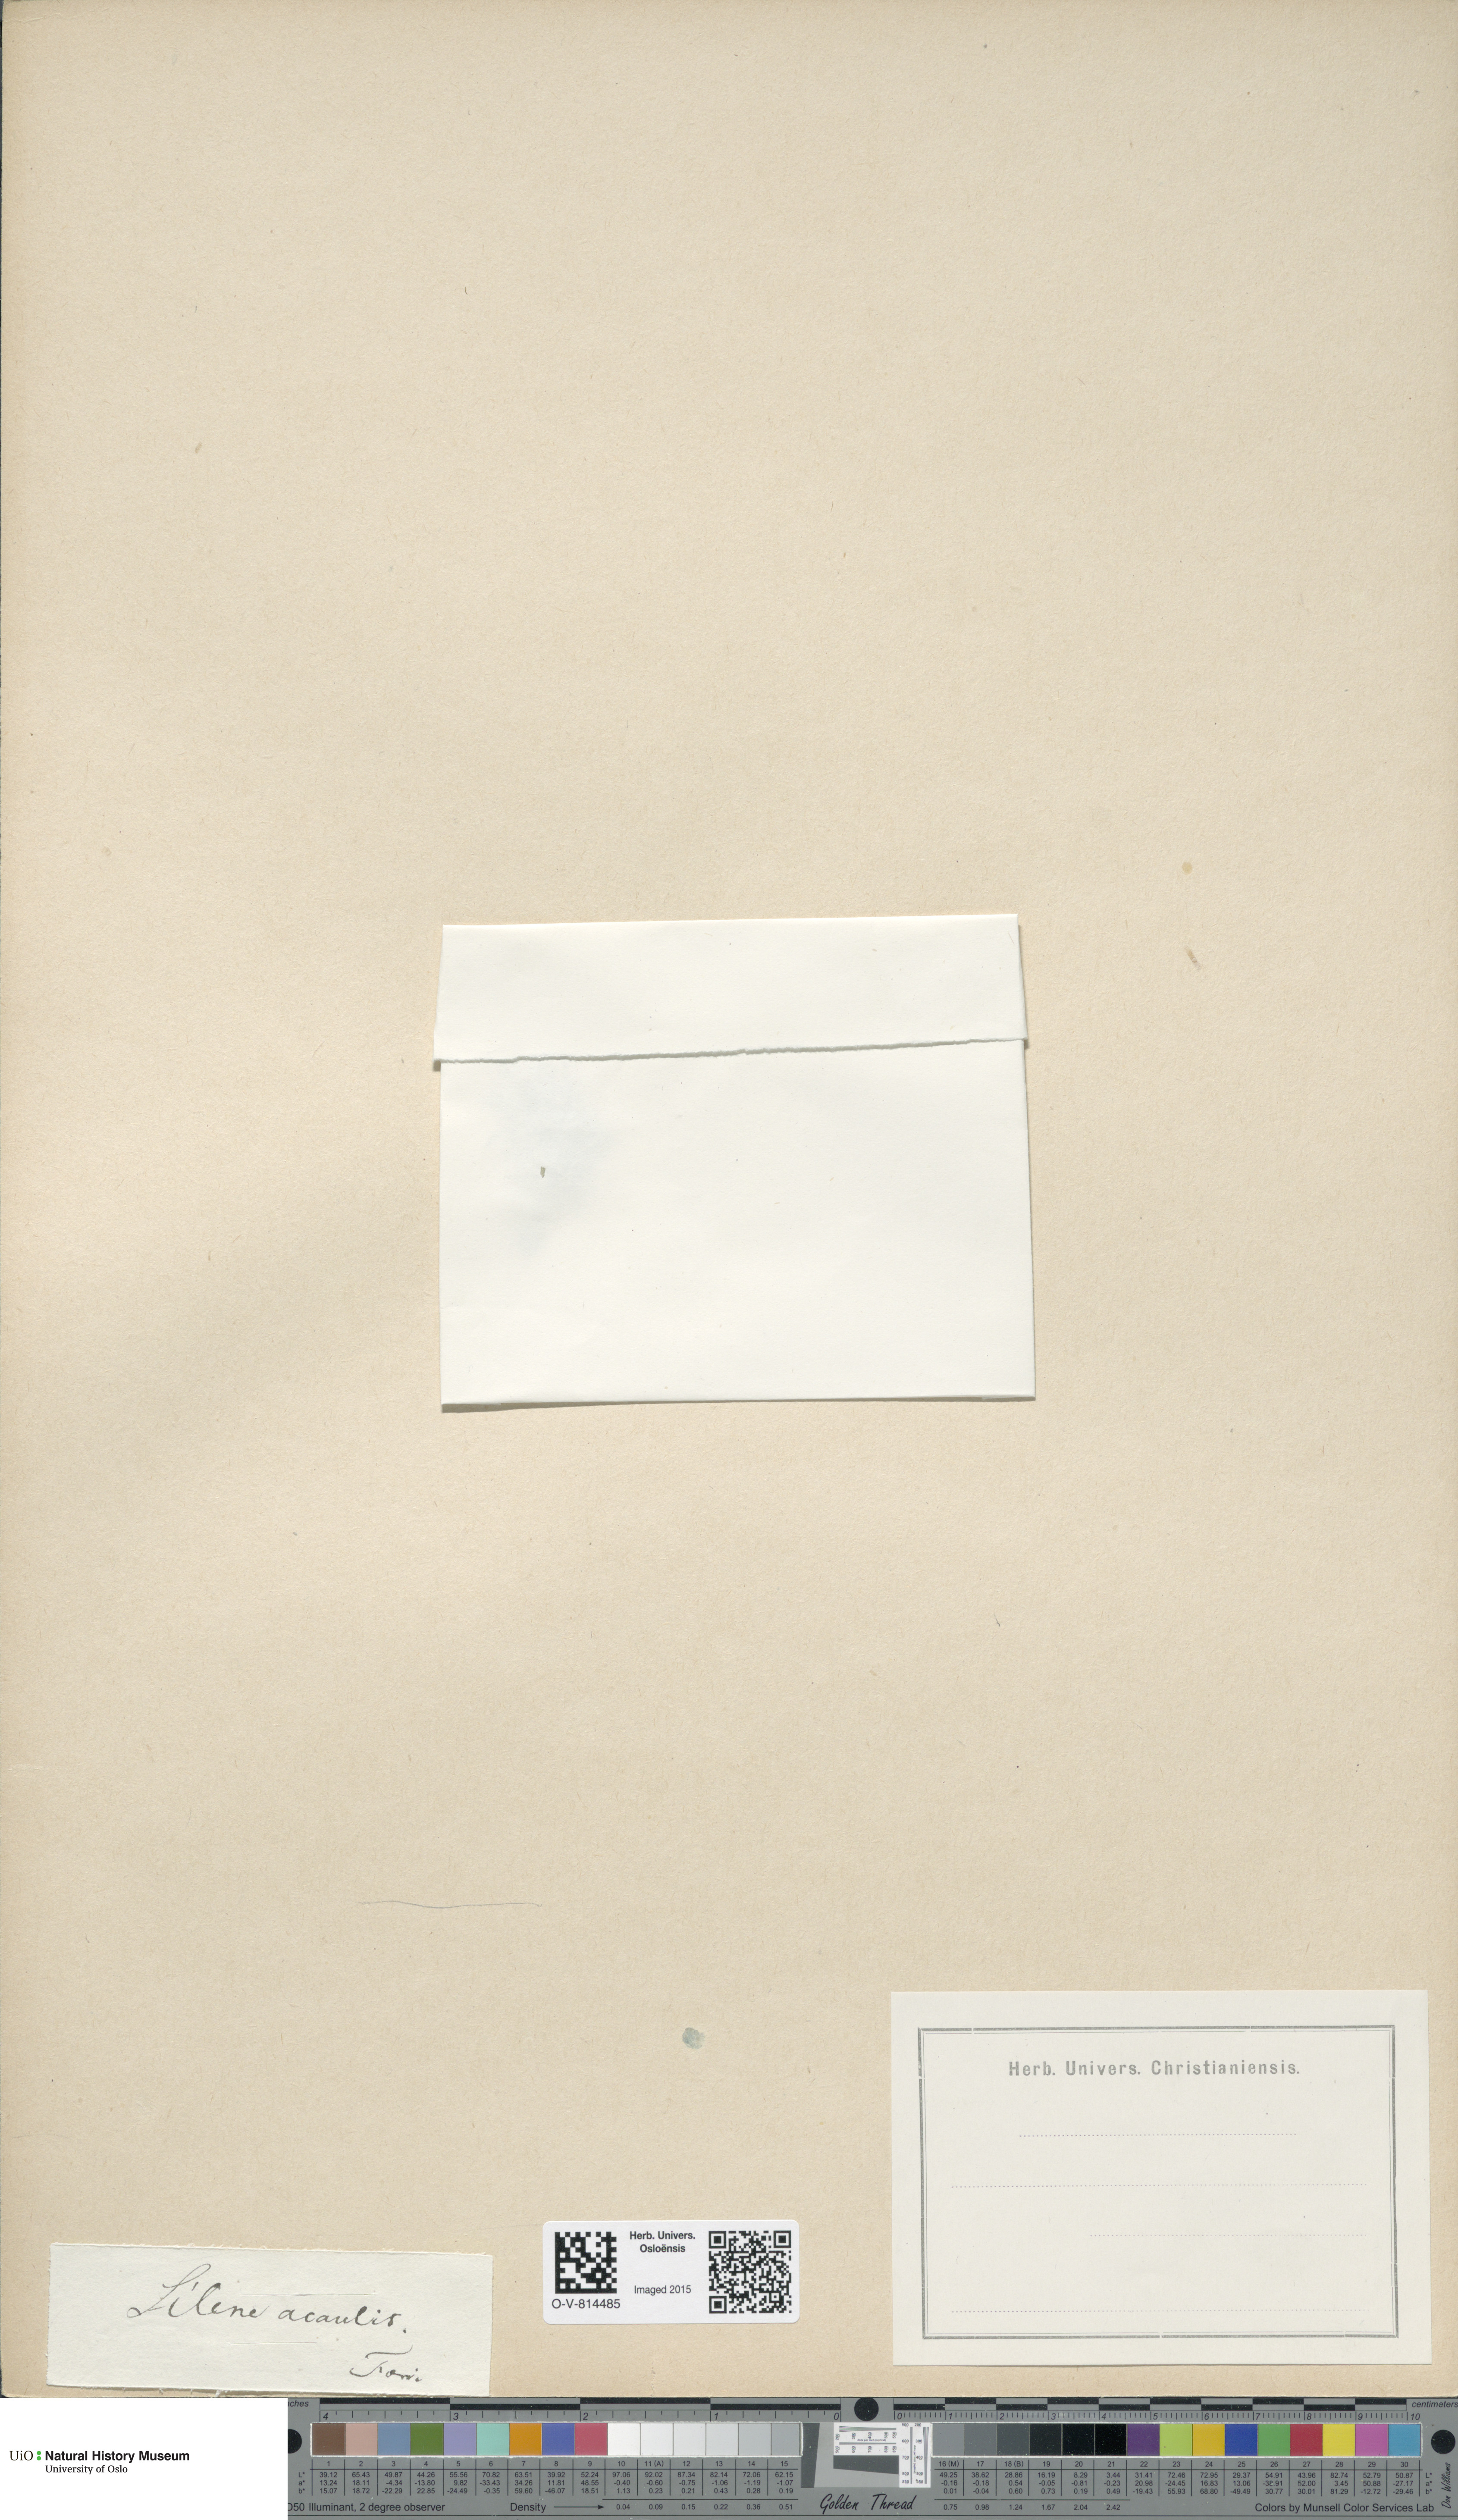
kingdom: Plantae
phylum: Tracheophyta
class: Magnoliopsida
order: Caryophyllales
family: Caryophyllaceae
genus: Silene
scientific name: Silene acaulis
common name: Moss campion
